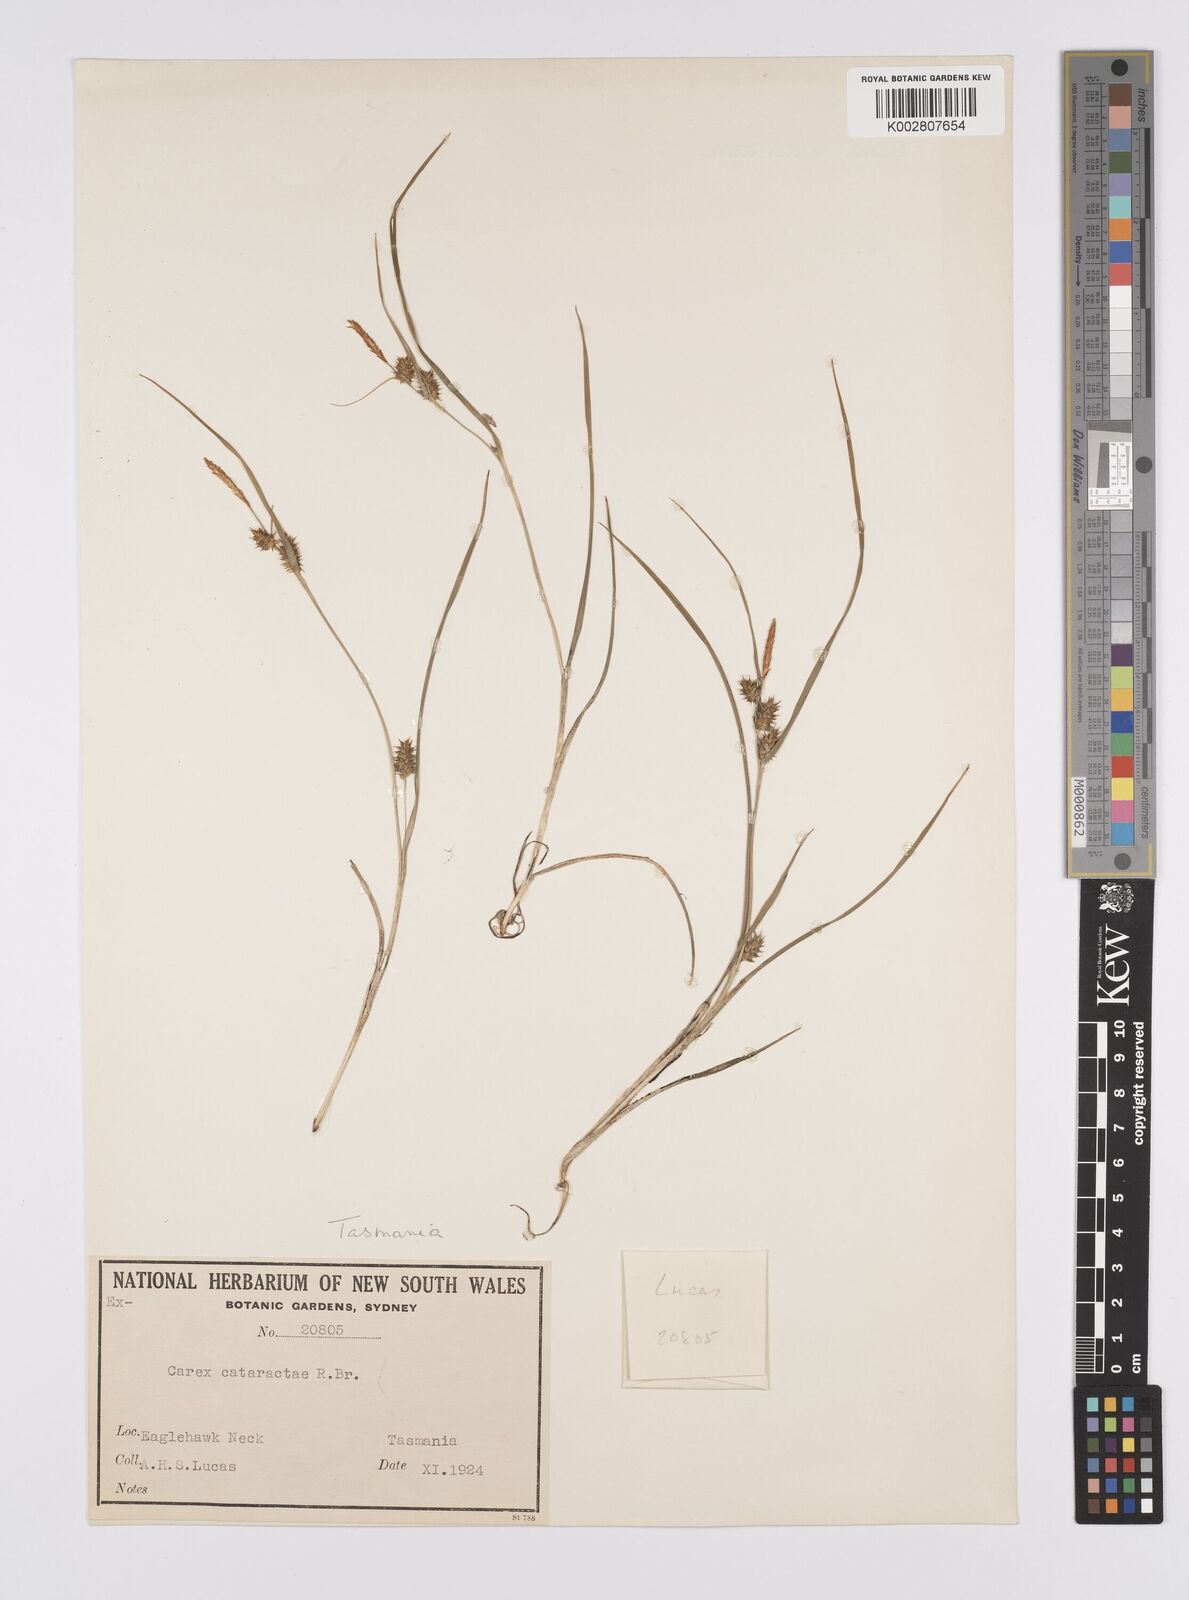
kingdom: Plantae
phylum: Tracheophyta
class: Liliopsida
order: Poales
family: Cyperaceae
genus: Carex
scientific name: Carex demissa
